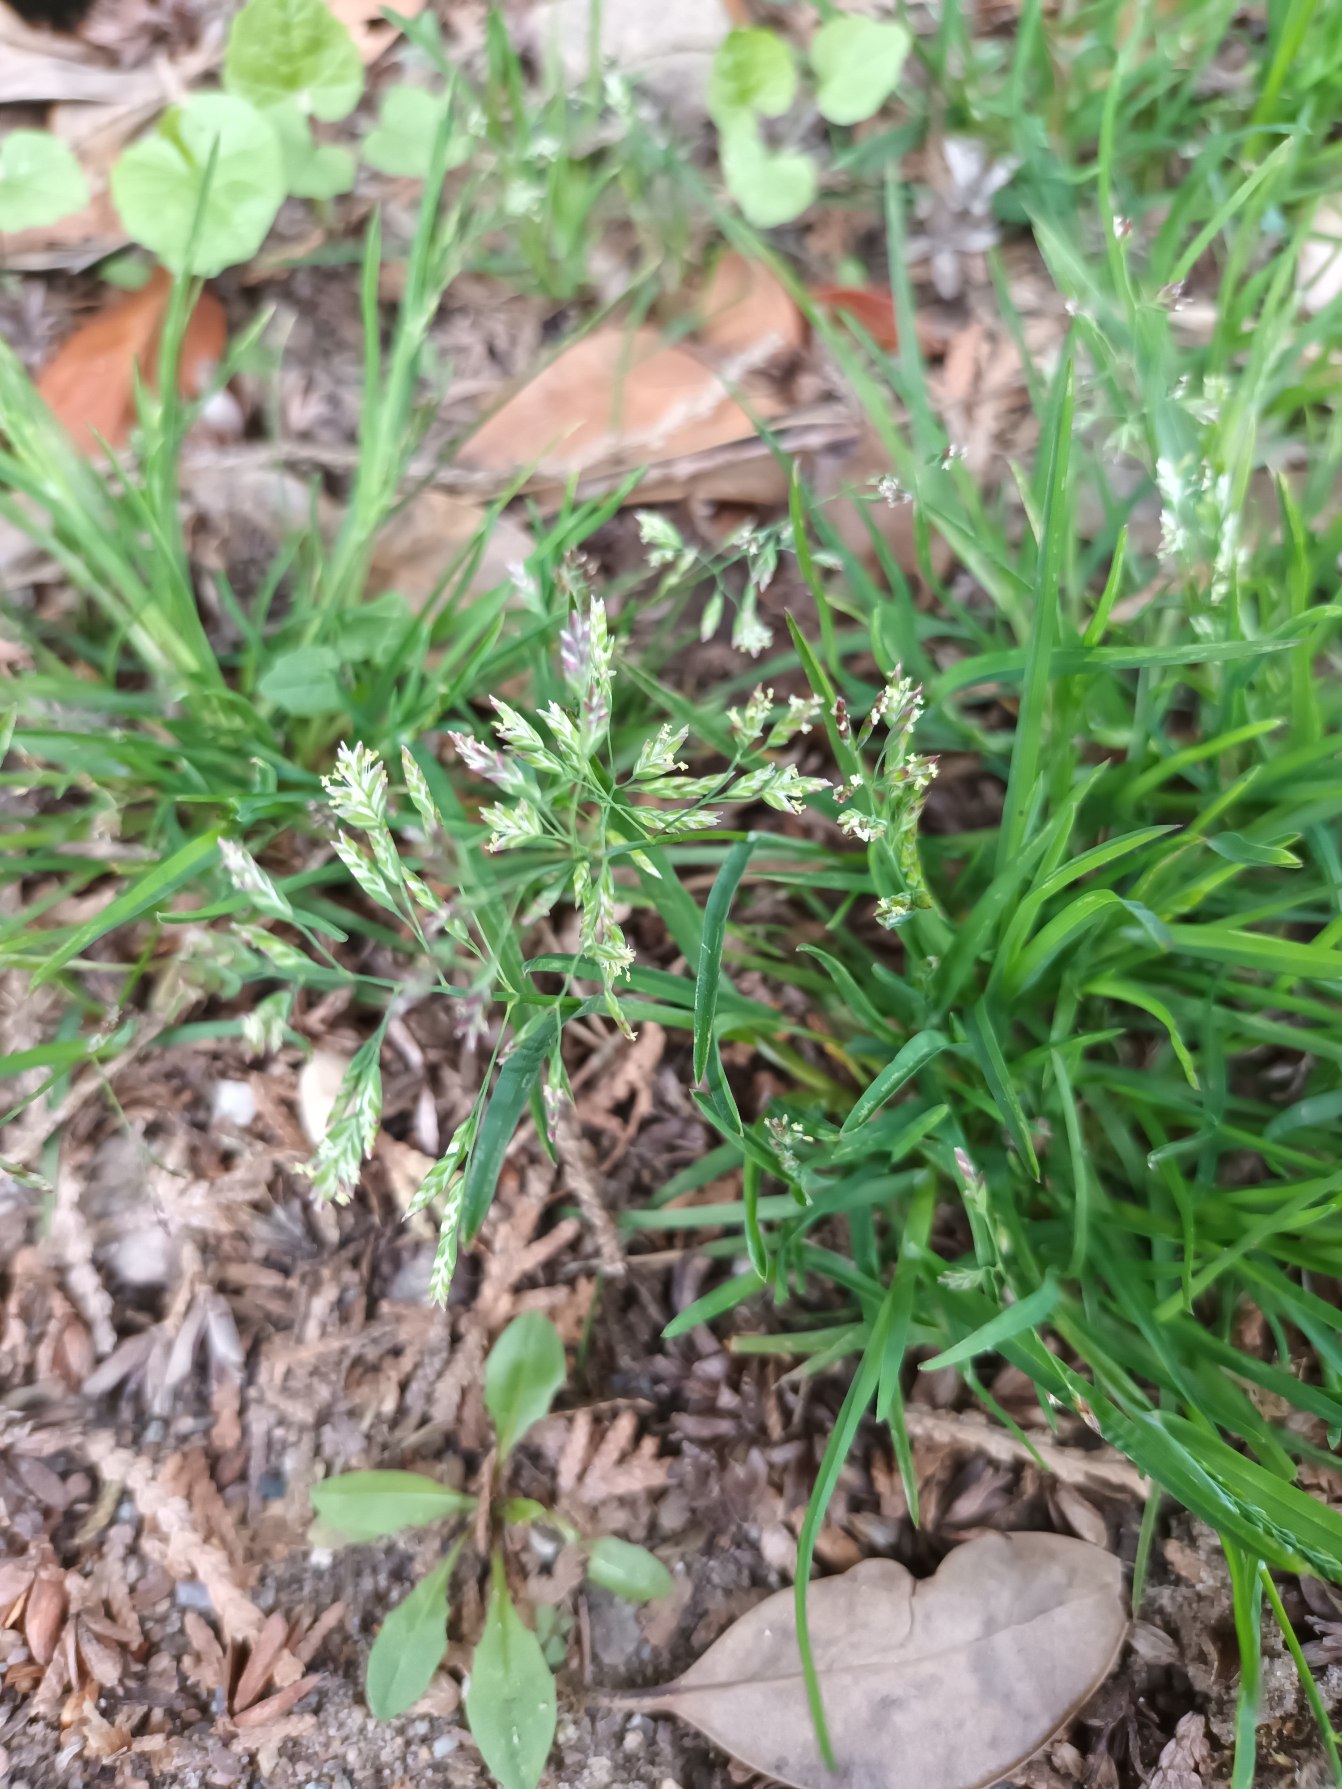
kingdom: Plantae
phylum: Tracheophyta
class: Liliopsida
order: Poales
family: Poaceae
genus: Poa
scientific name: Poa annua
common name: Enårig rapgræs
